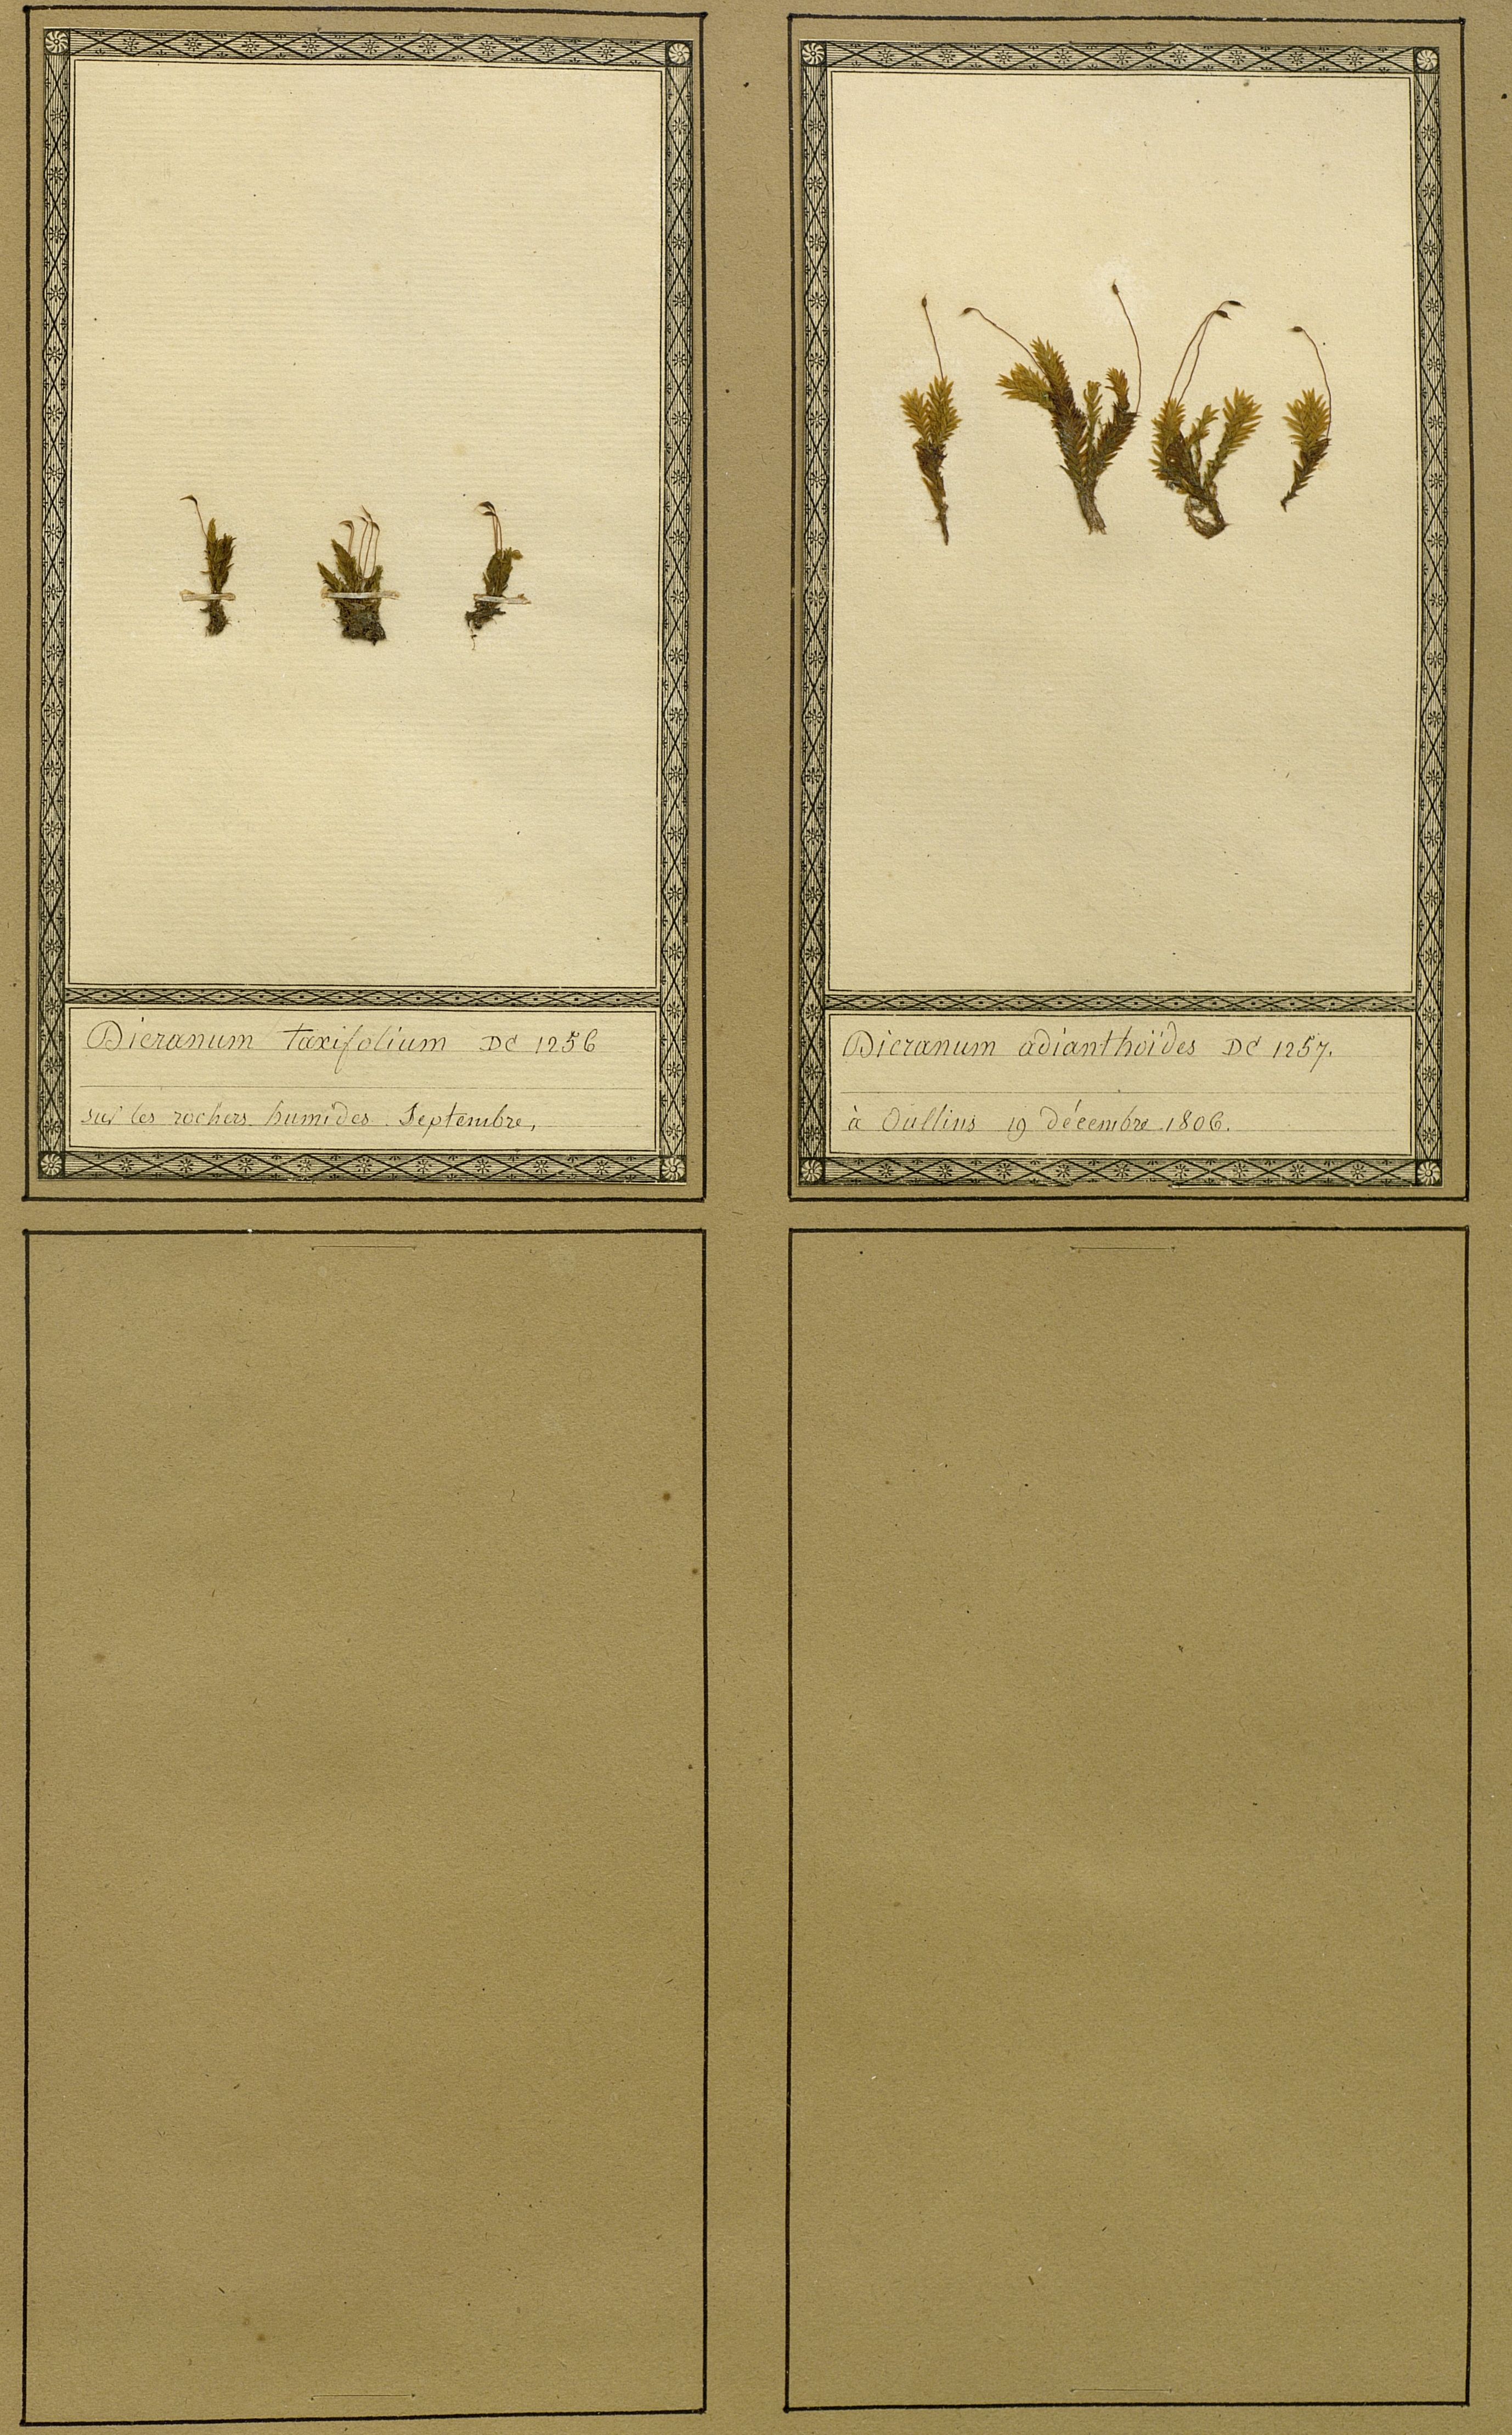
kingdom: Plantae
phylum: Bryophyta
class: Bryopsida
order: Dicranales
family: Fissidentaceae
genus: Fissidens
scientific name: Fissidens adianthoides
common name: Maidenhair pocket moss
